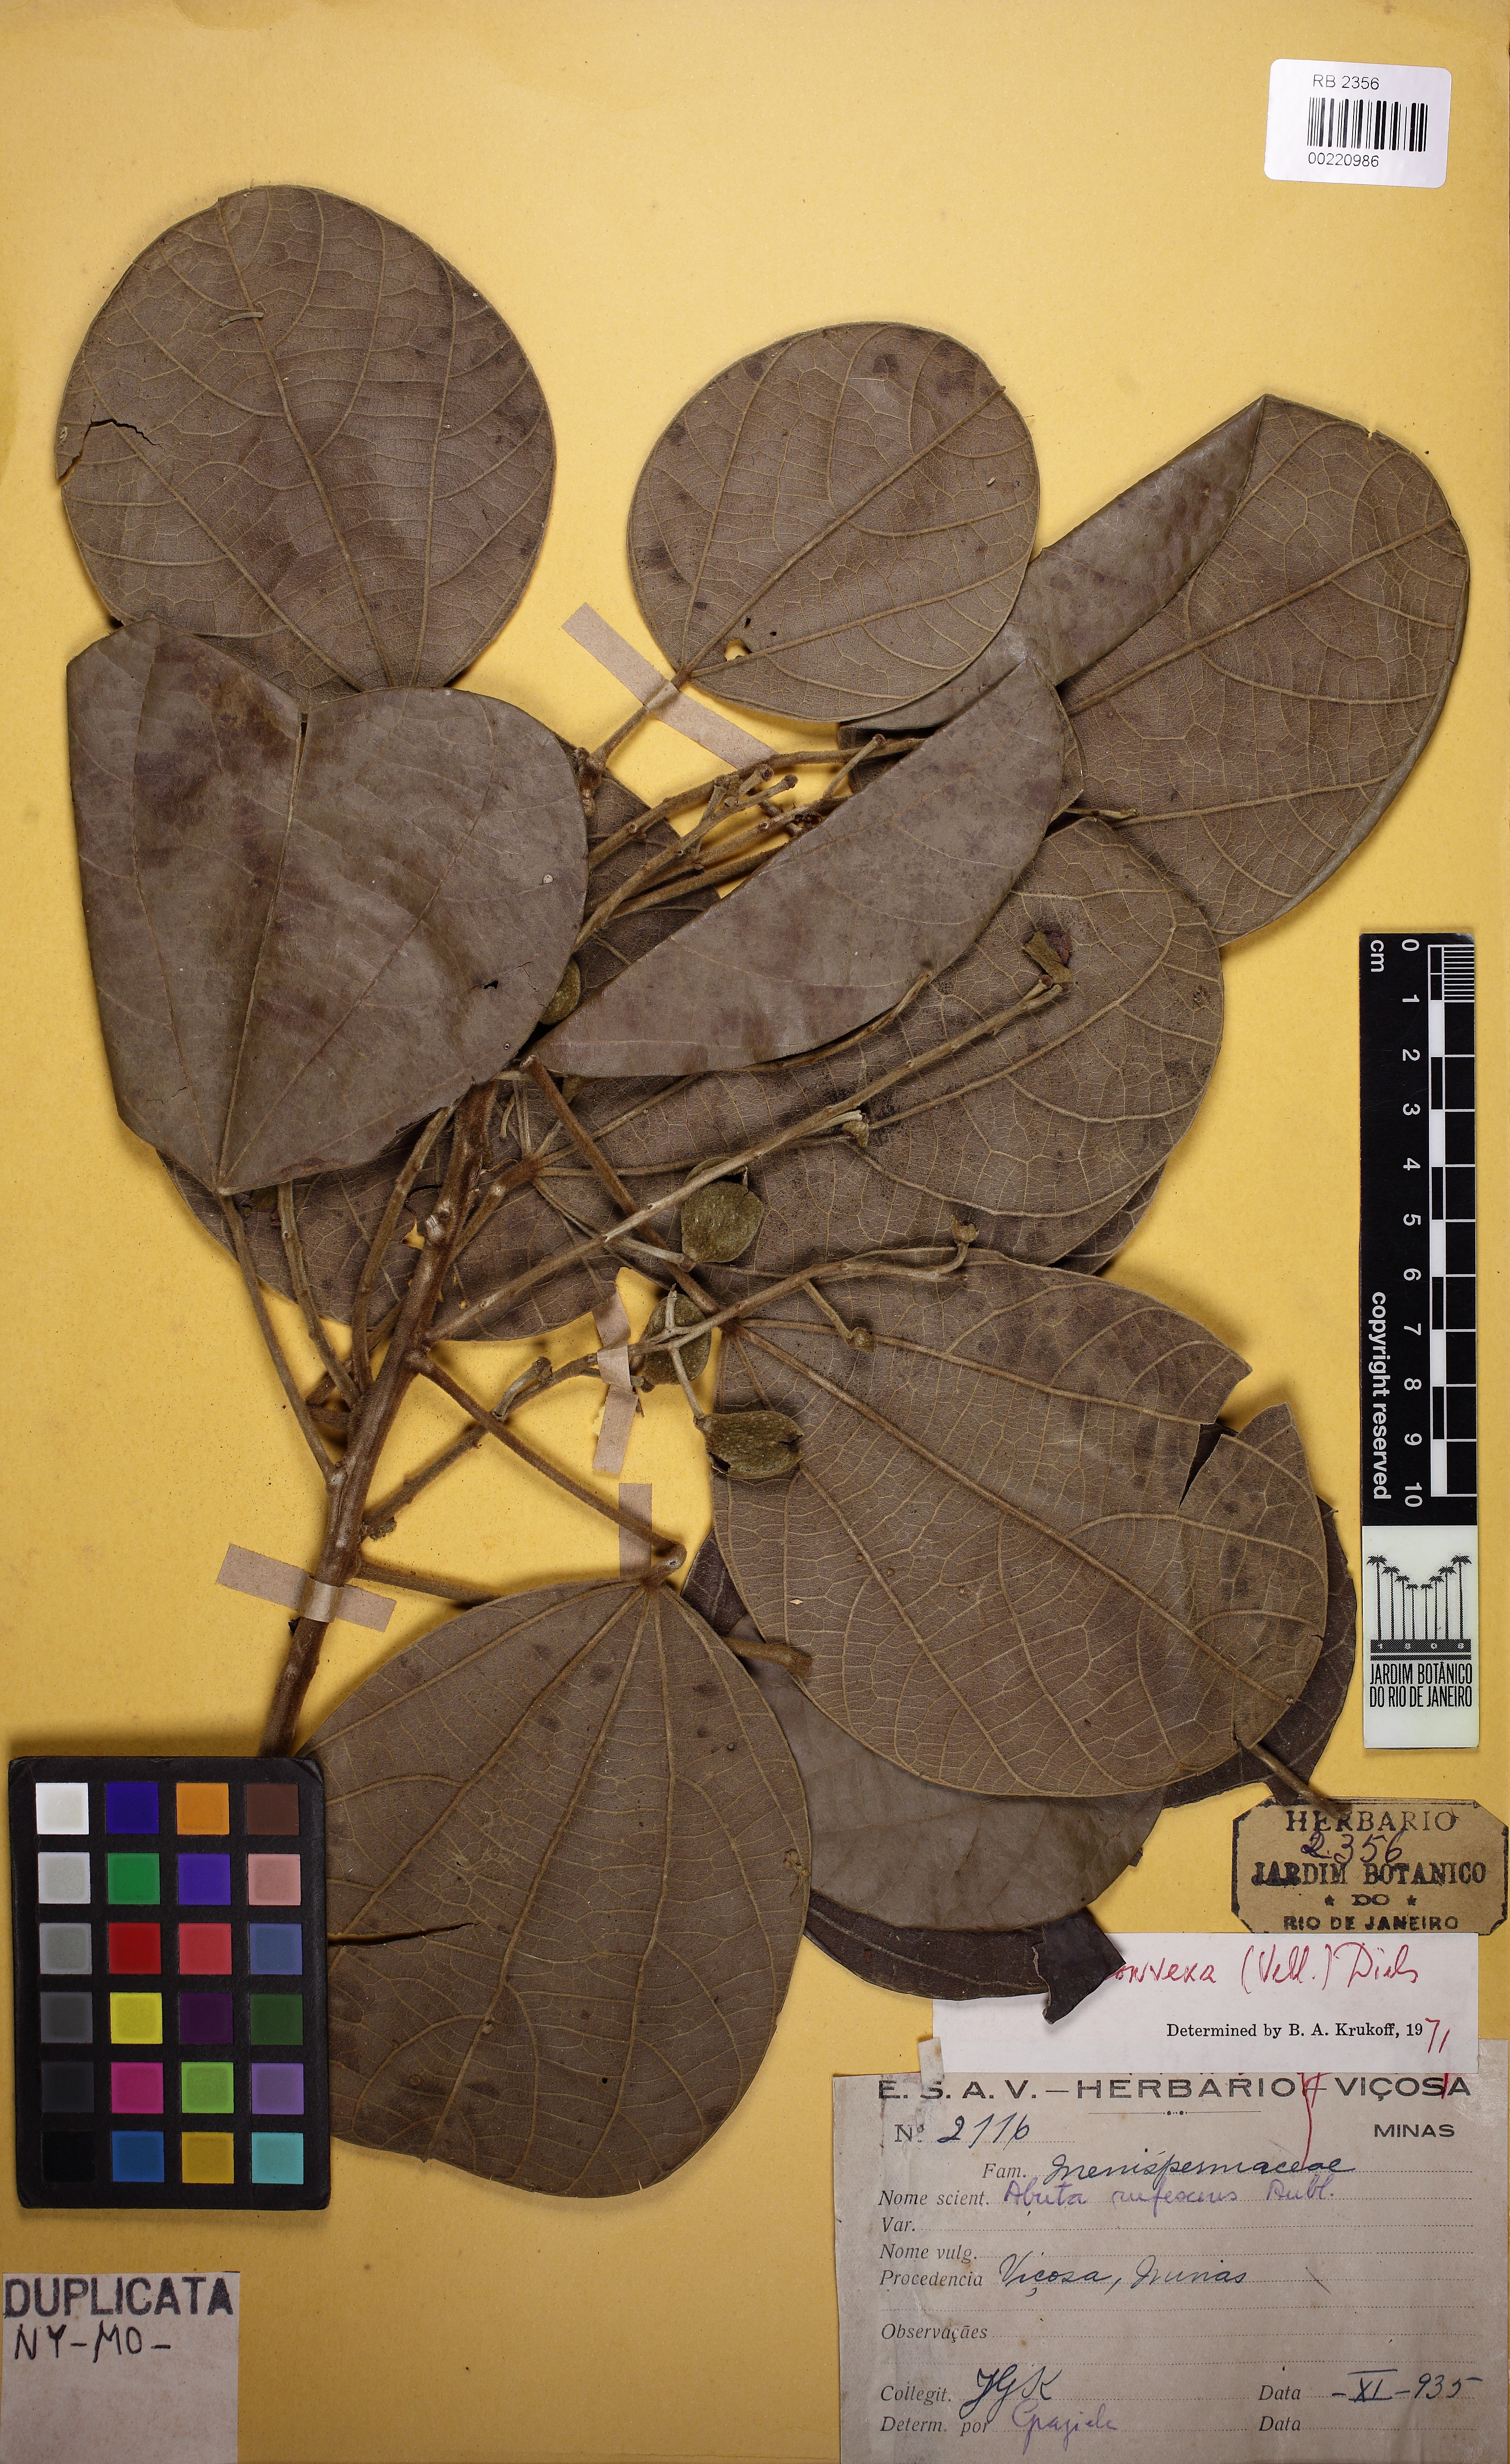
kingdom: Plantae
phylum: Tracheophyta
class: Magnoliopsida
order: Ranunculales
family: Menispermaceae
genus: Abuta
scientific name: Abuta rufescens
